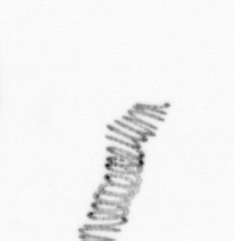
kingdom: Chromista
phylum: Ochrophyta
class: Bacillariophyceae
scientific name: Bacillariophyceae
